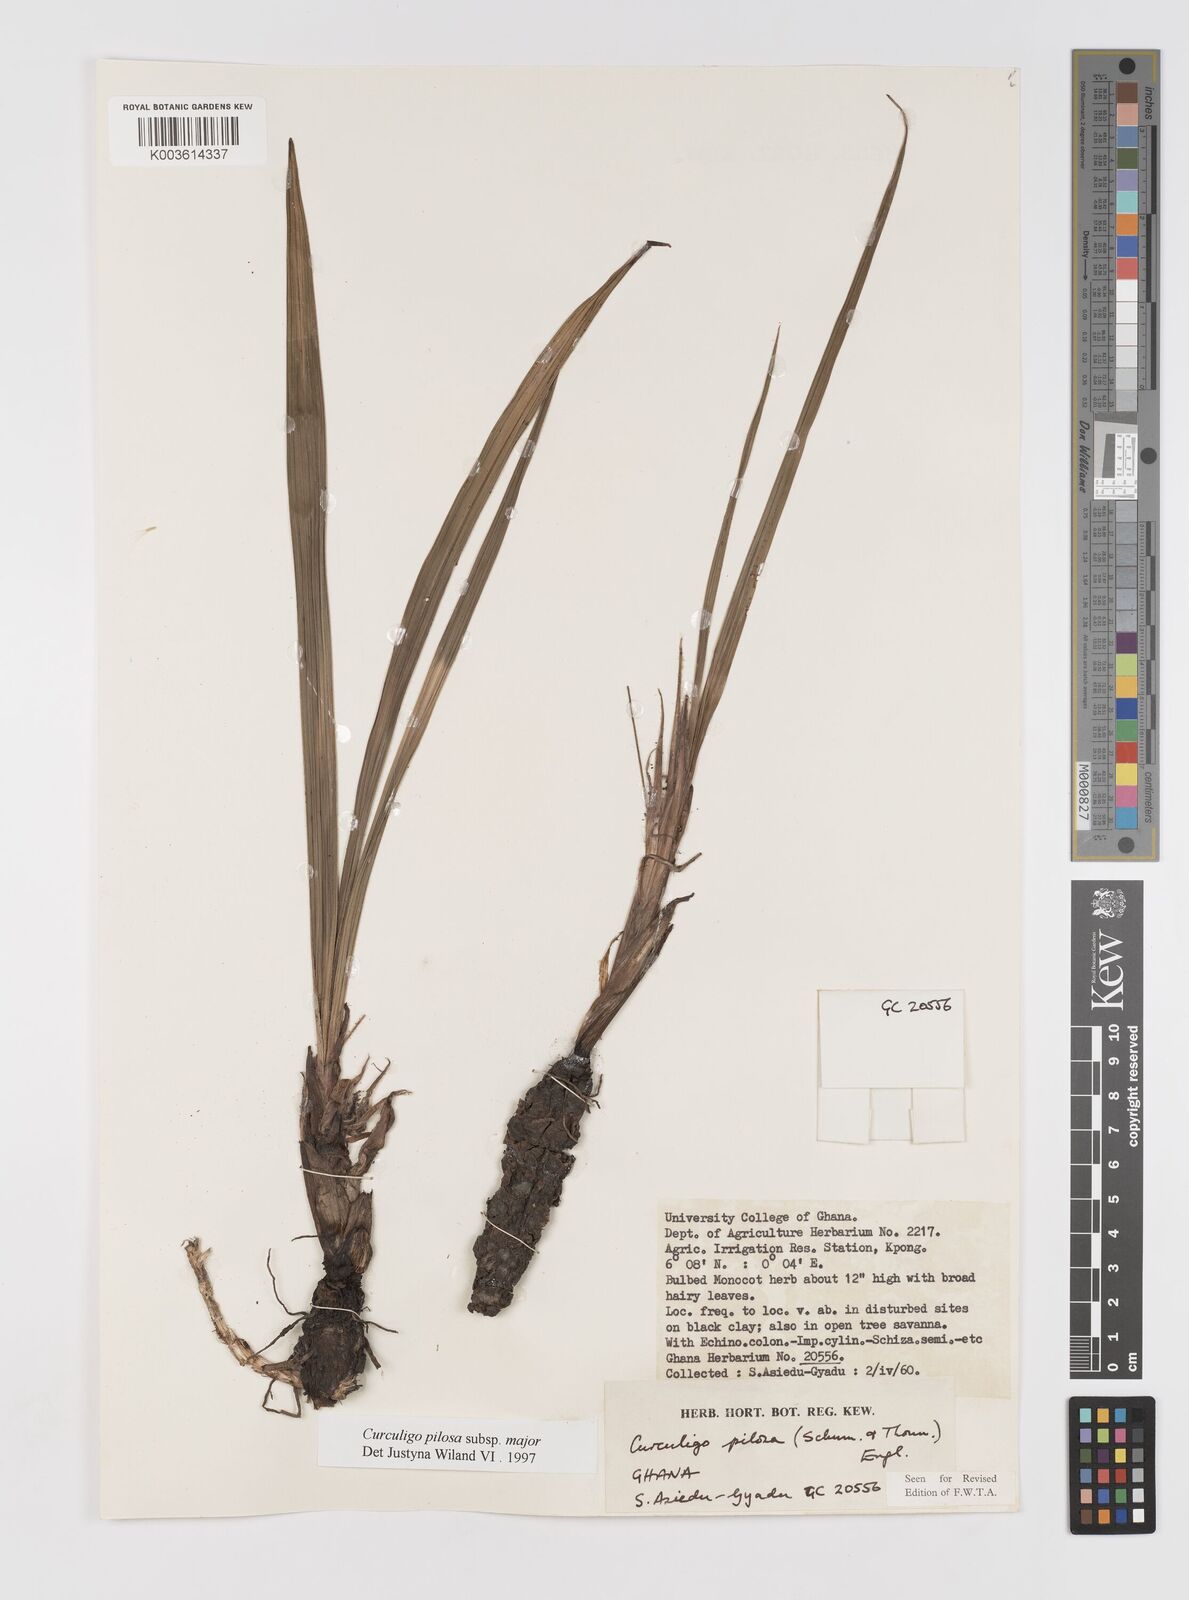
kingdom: Plantae
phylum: Tracheophyta
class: Liliopsida
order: Asparagales
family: Hypoxidaceae
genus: Curculigo
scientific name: Curculigo pilosa
